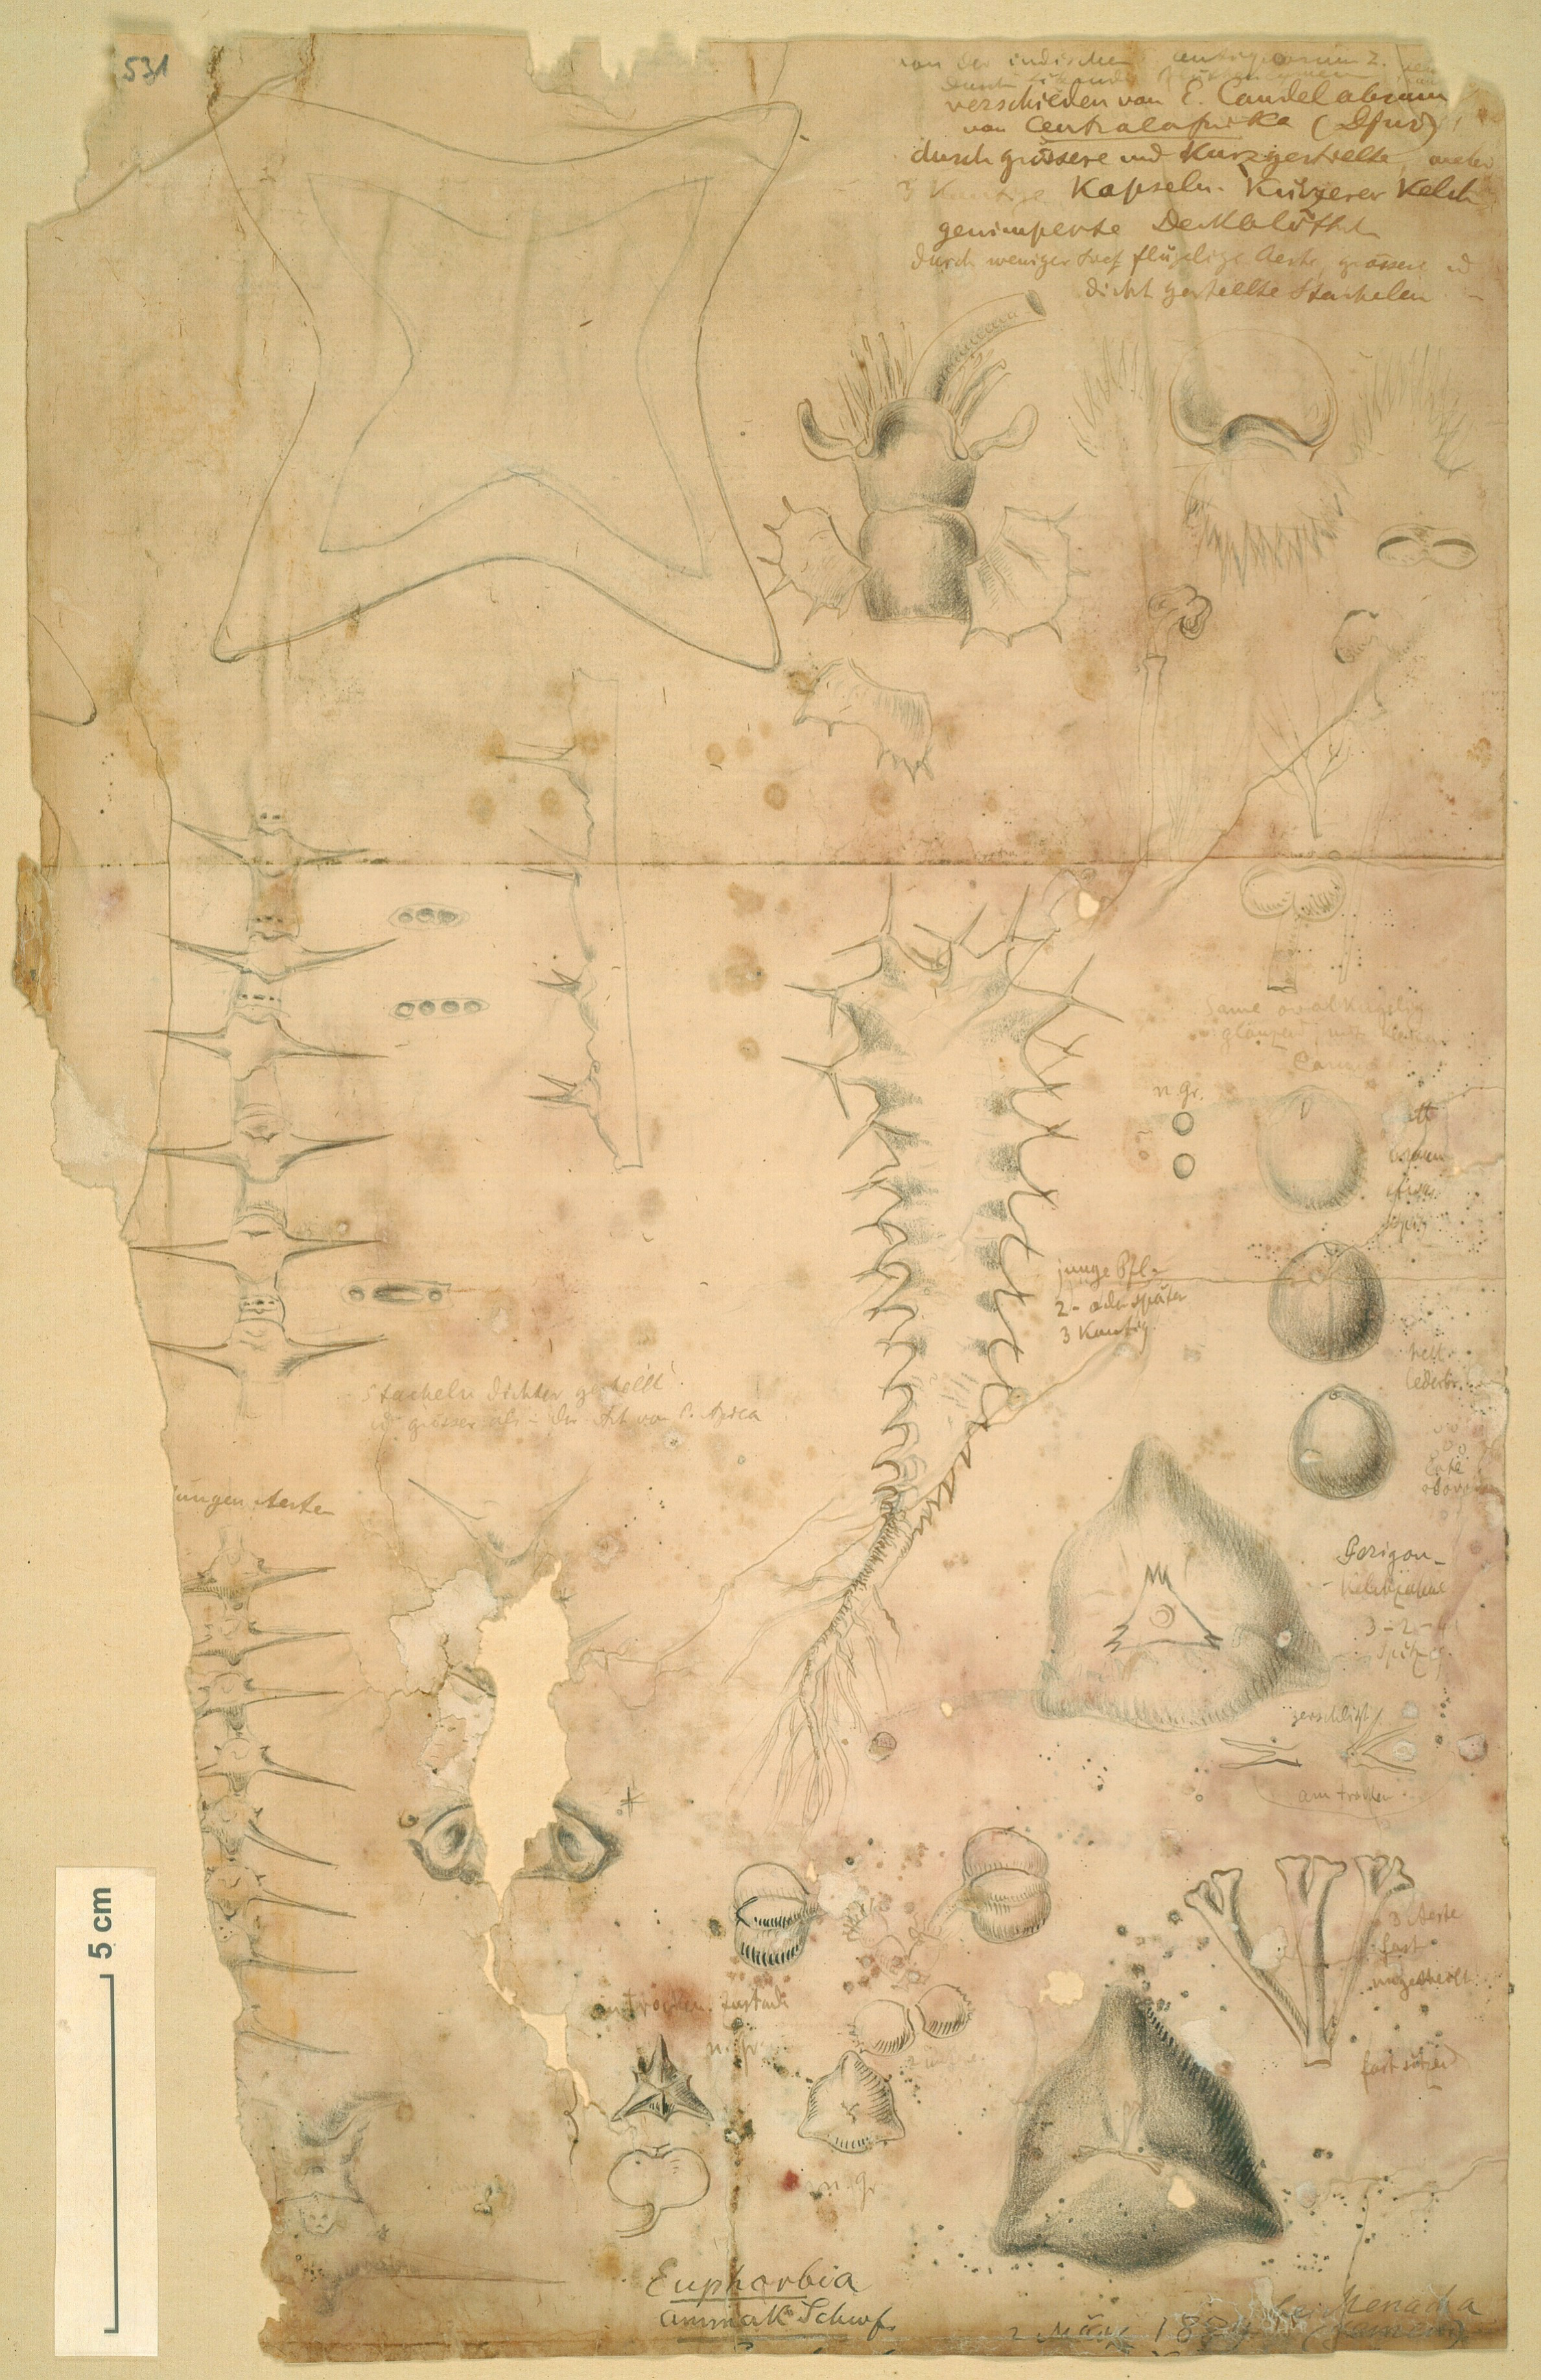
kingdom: Plantae
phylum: Tracheophyta
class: Magnoliopsida
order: Malpighiales
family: Euphorbiaceae
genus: Euphorbia
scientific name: Euphorbia ammak
